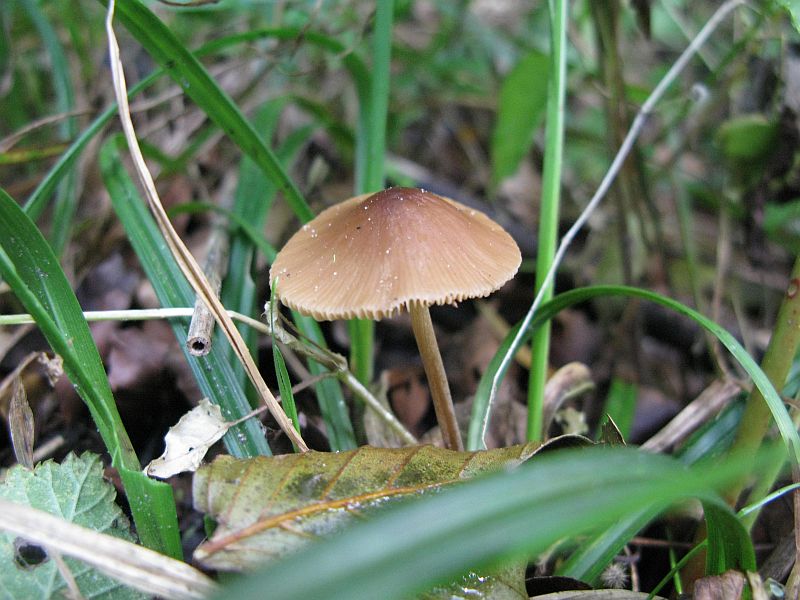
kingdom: Fungi
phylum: Basidiomycota
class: Agaricomycetes
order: Agaricales
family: Bolbitiaceae
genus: Conocybe
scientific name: Conocybe tenera
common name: rank keglehat
